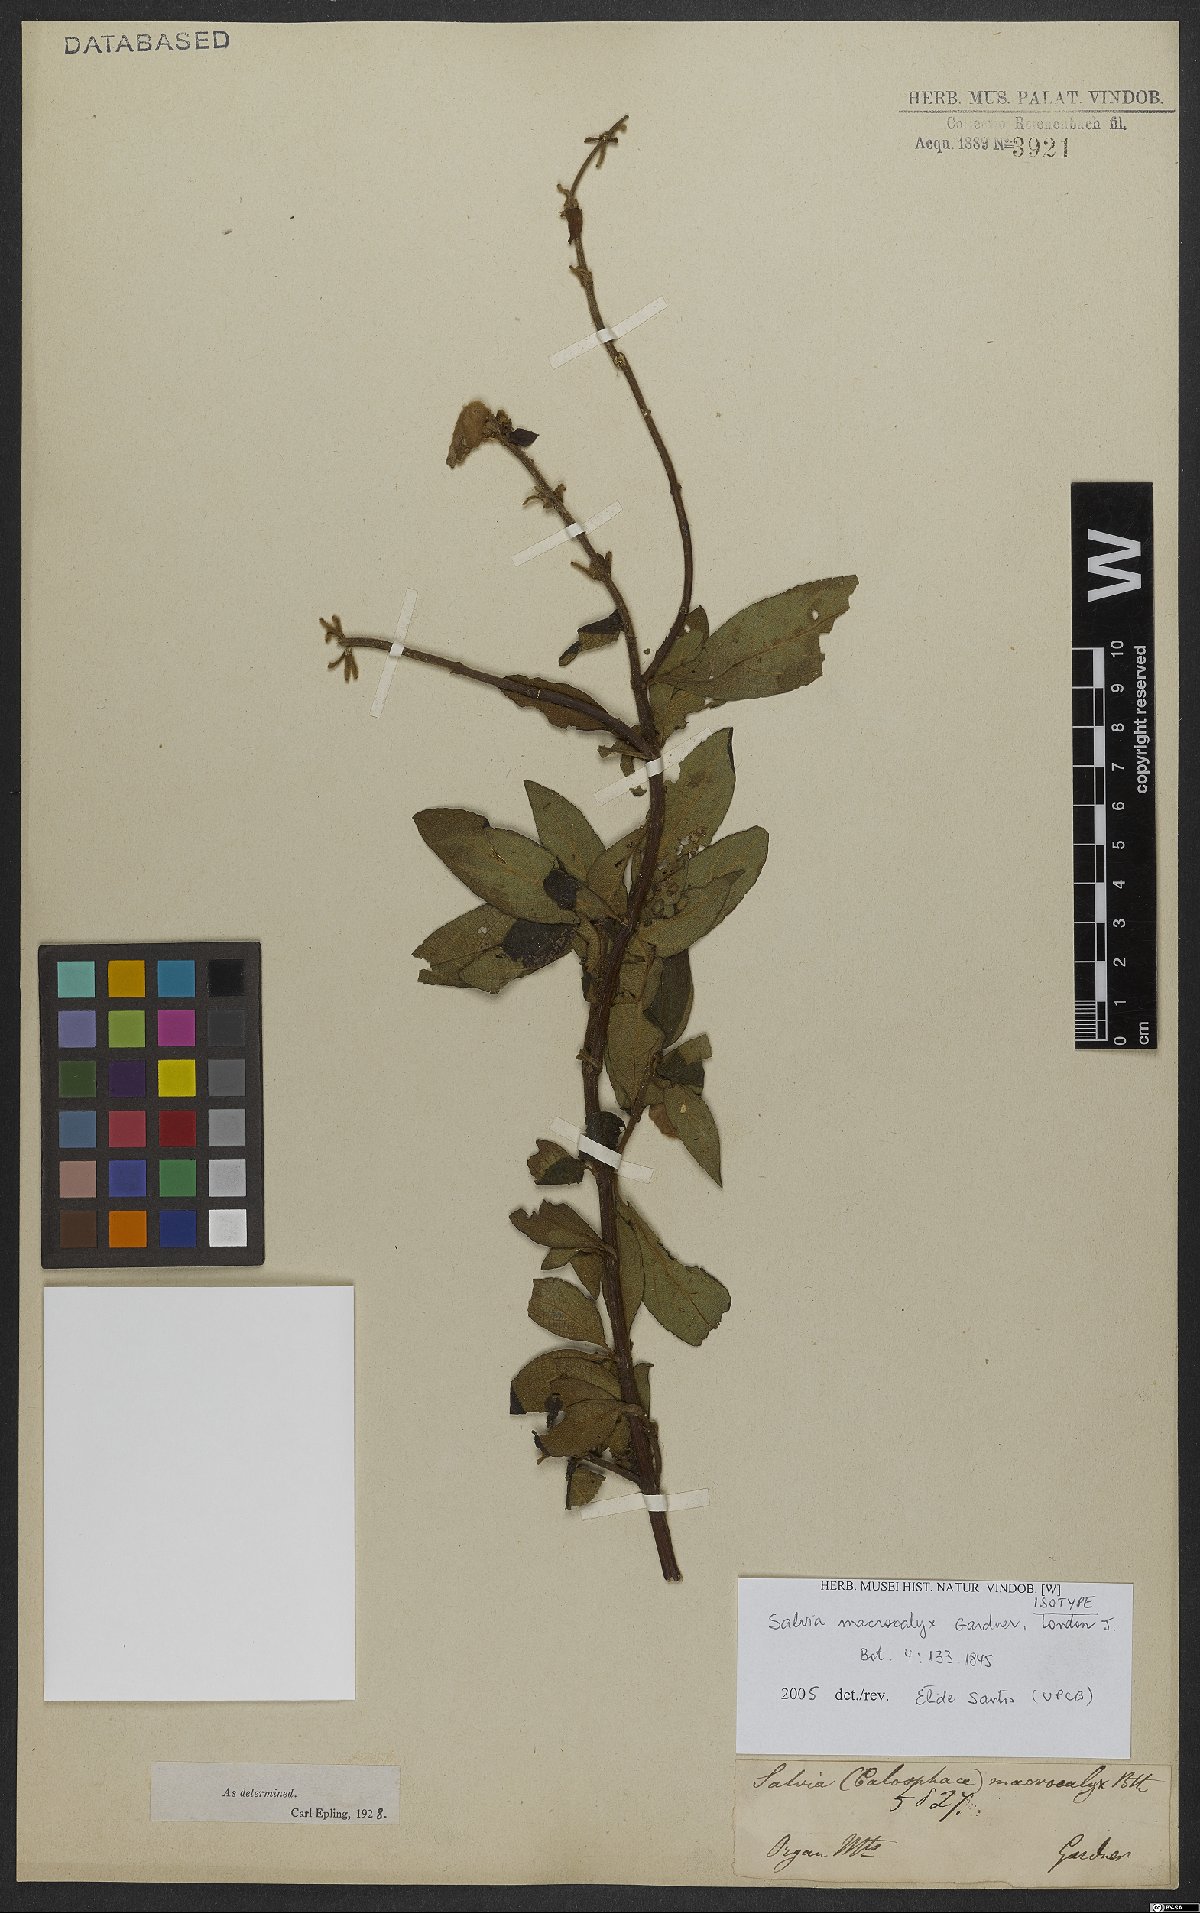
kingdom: Plantae
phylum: Tracheophyta
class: Magnoliopsida
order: Lamiales
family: Lamiaceae
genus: Salvia
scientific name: Salvia macrocalyx
